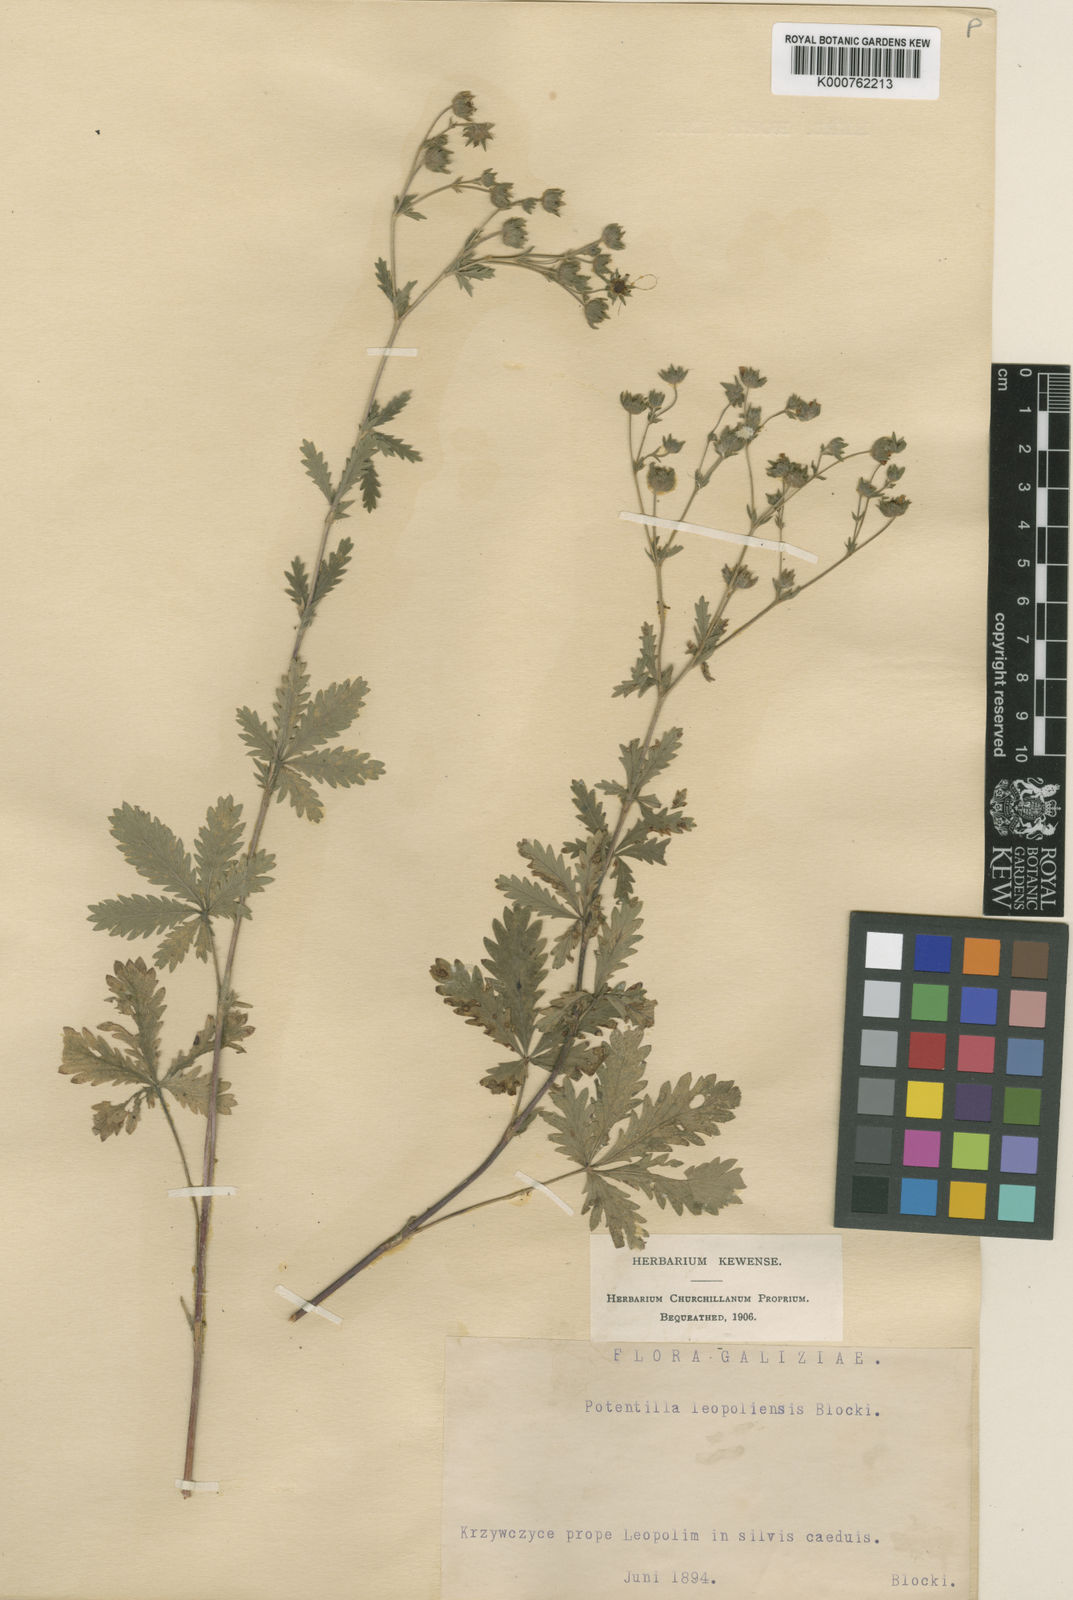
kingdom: Plantae
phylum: Tracheophyta
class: Magnoliopsida
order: Rosales
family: Rosaceae
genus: Potentilla
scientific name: Potentilla inclinata
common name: Grey cinquefoil
